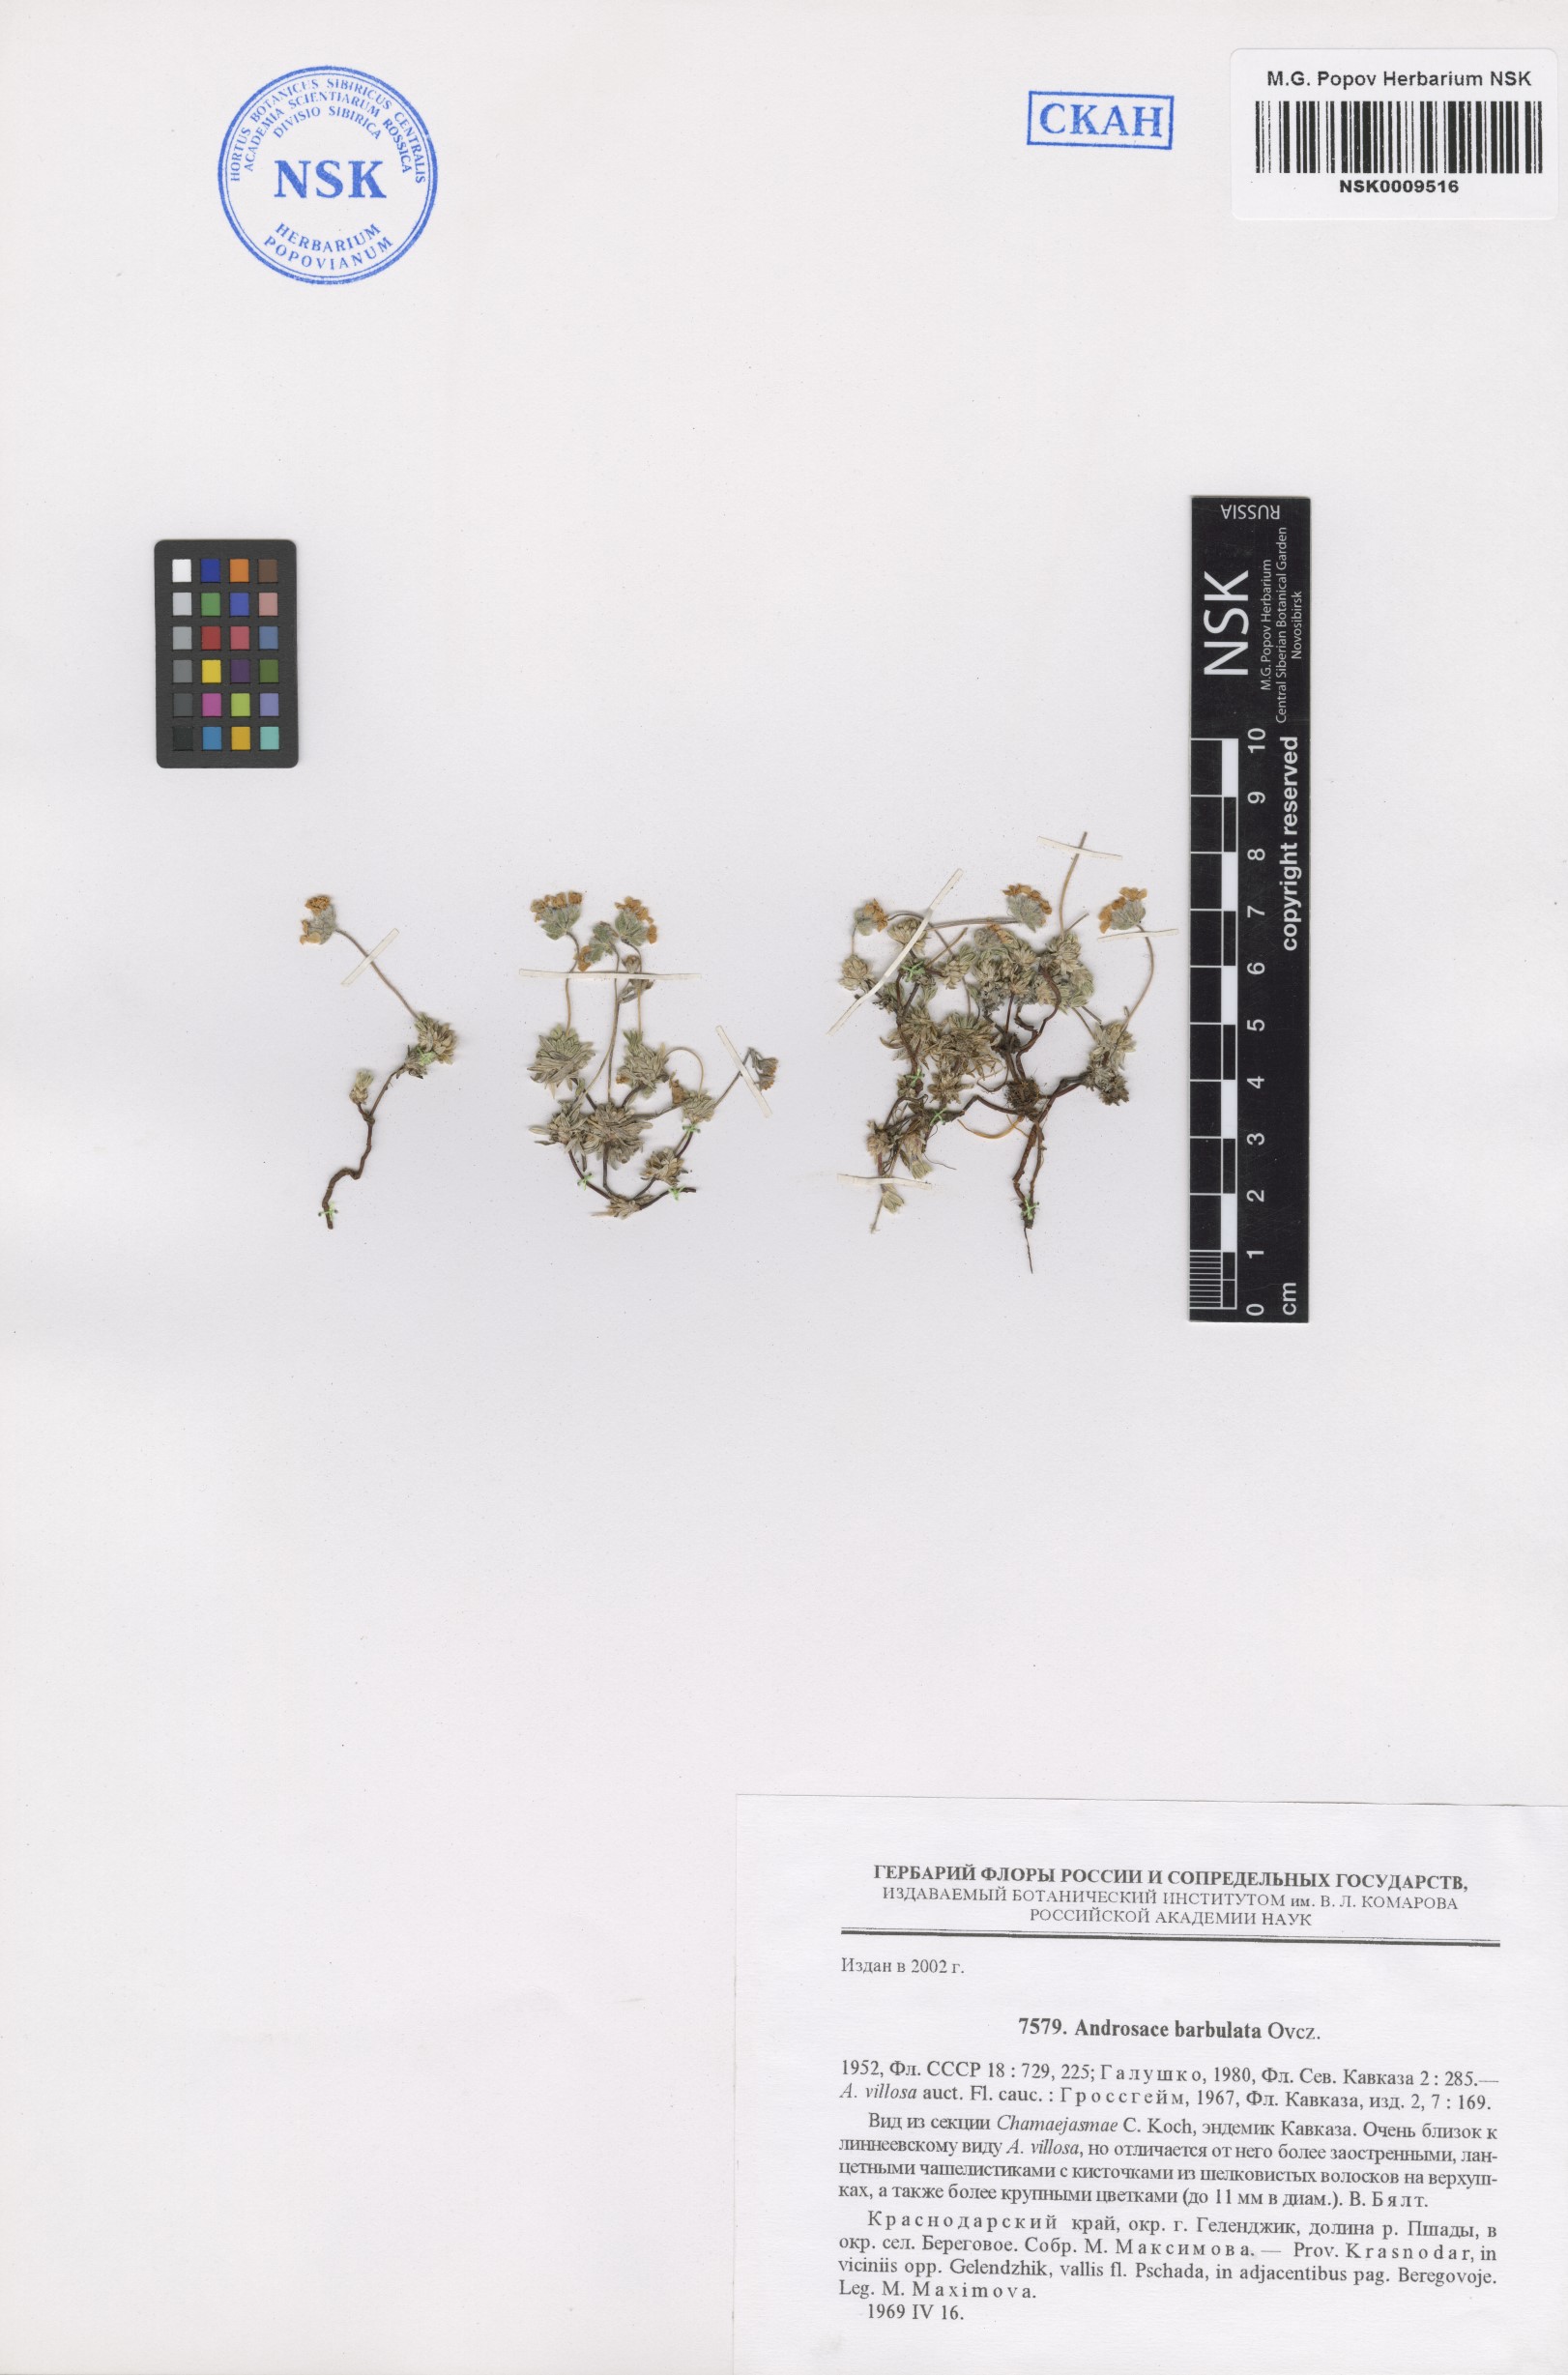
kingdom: Plantae
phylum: Tracheophyta
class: Magnoliopsida
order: Ericales
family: Primulaceae
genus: Androsace
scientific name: Androsace villosa
